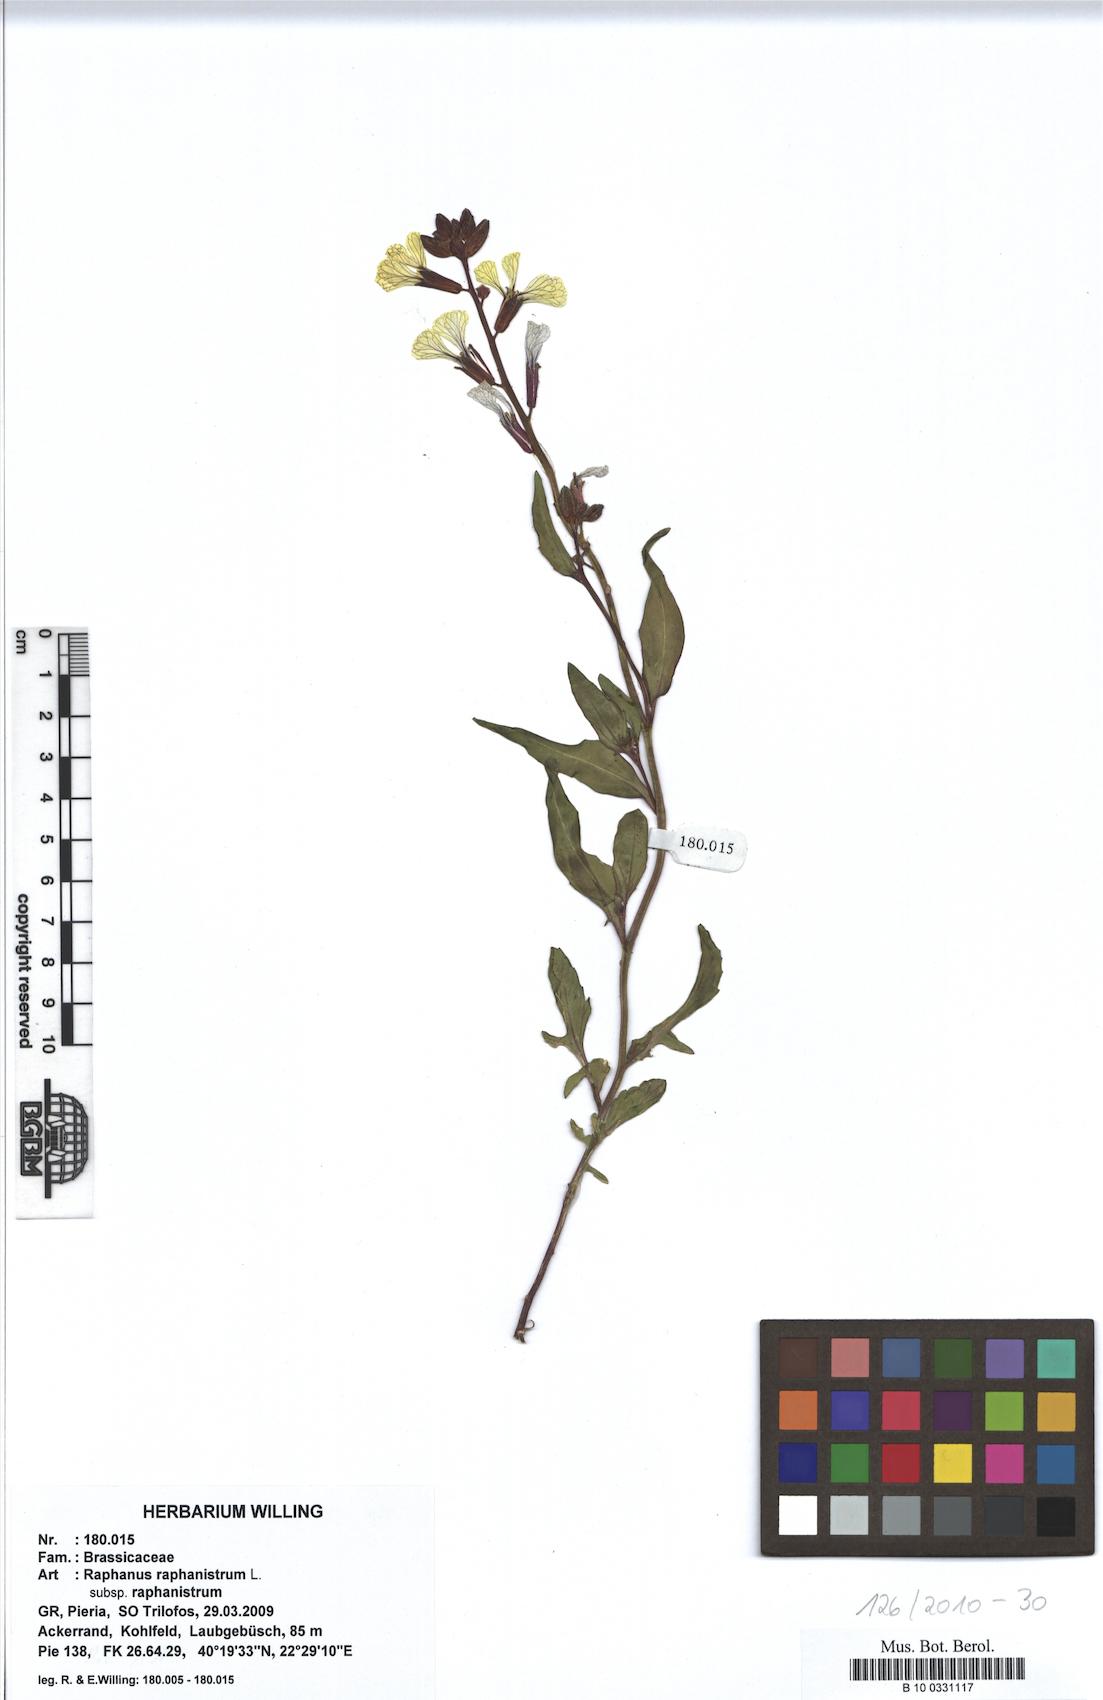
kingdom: Plantae
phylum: Tracheophyta
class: Magnoliopsida
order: Brassicales
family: Brassicaceae
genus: Raphanus
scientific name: Raphanus raphanistrum
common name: Wild radish
